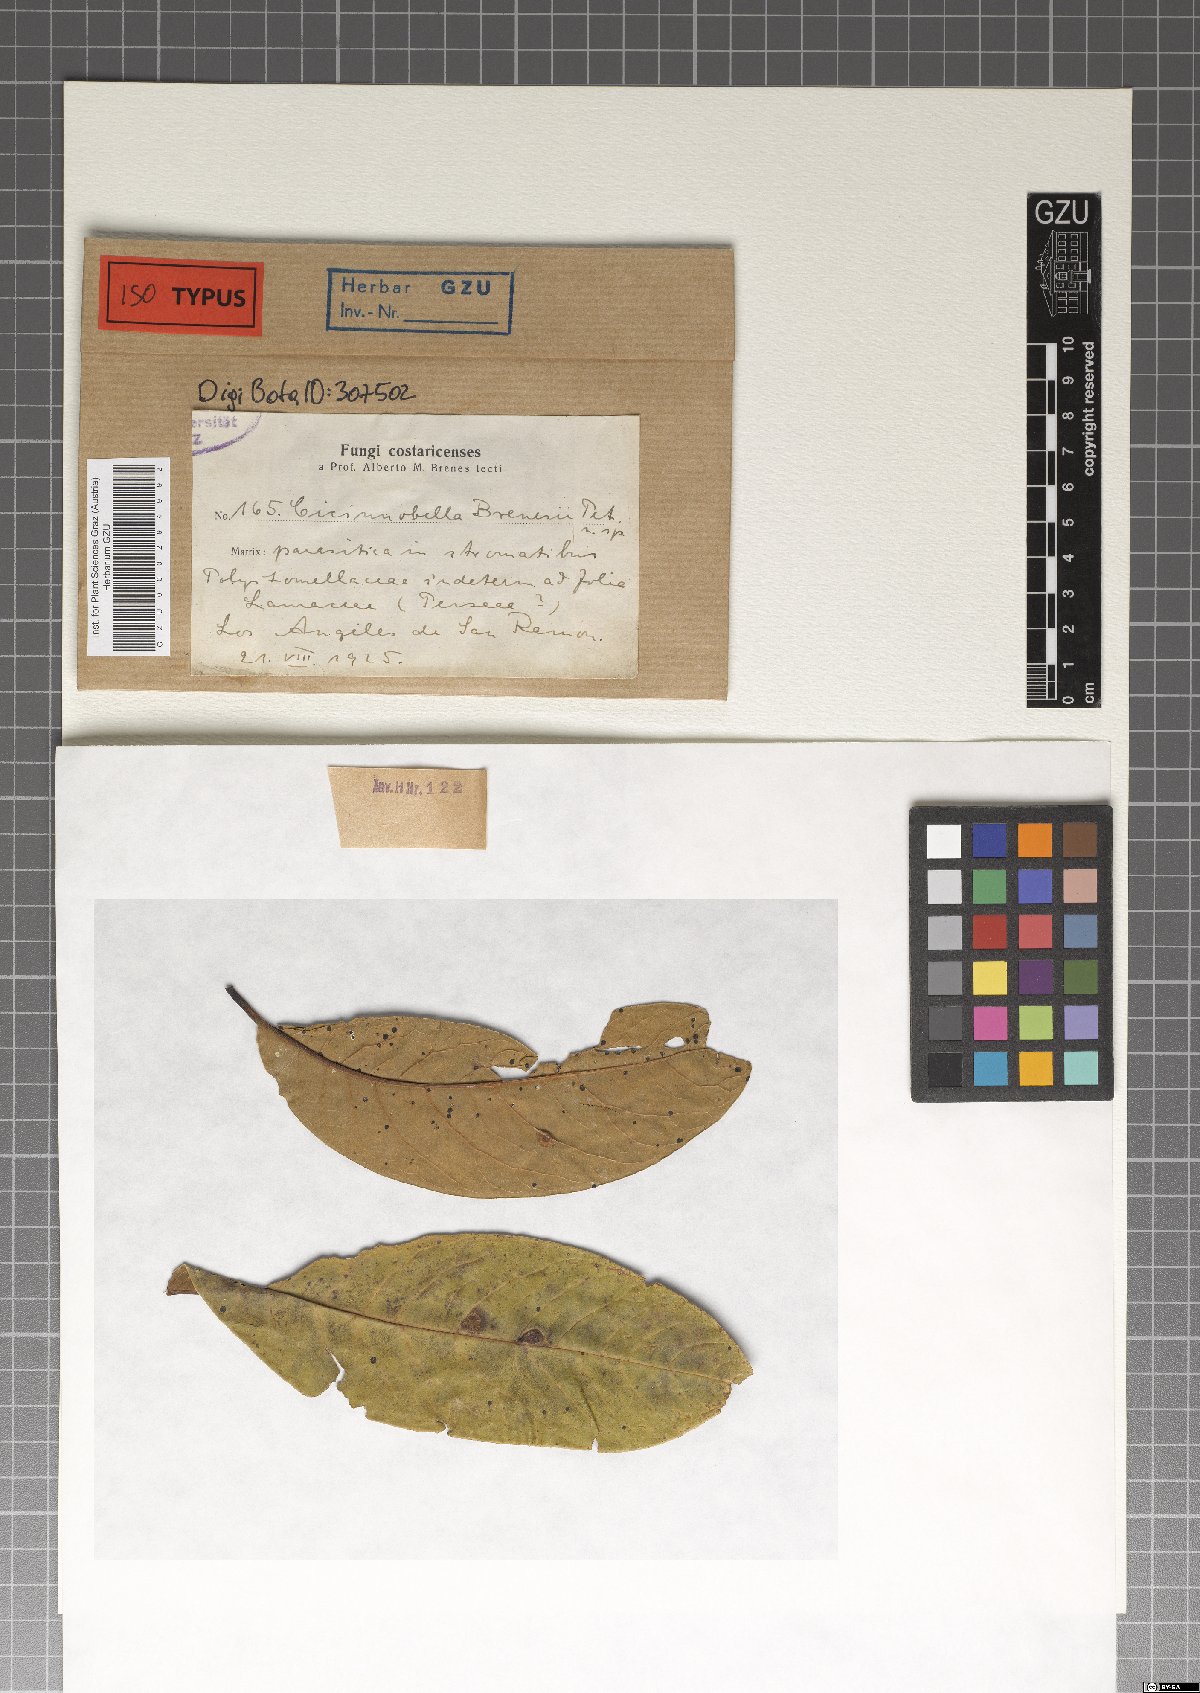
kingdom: Fungi
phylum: Ascomycota
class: Dothideomycetes
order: Dothideales
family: Parodiopsidaceae
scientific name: Parodiopsidaceae
